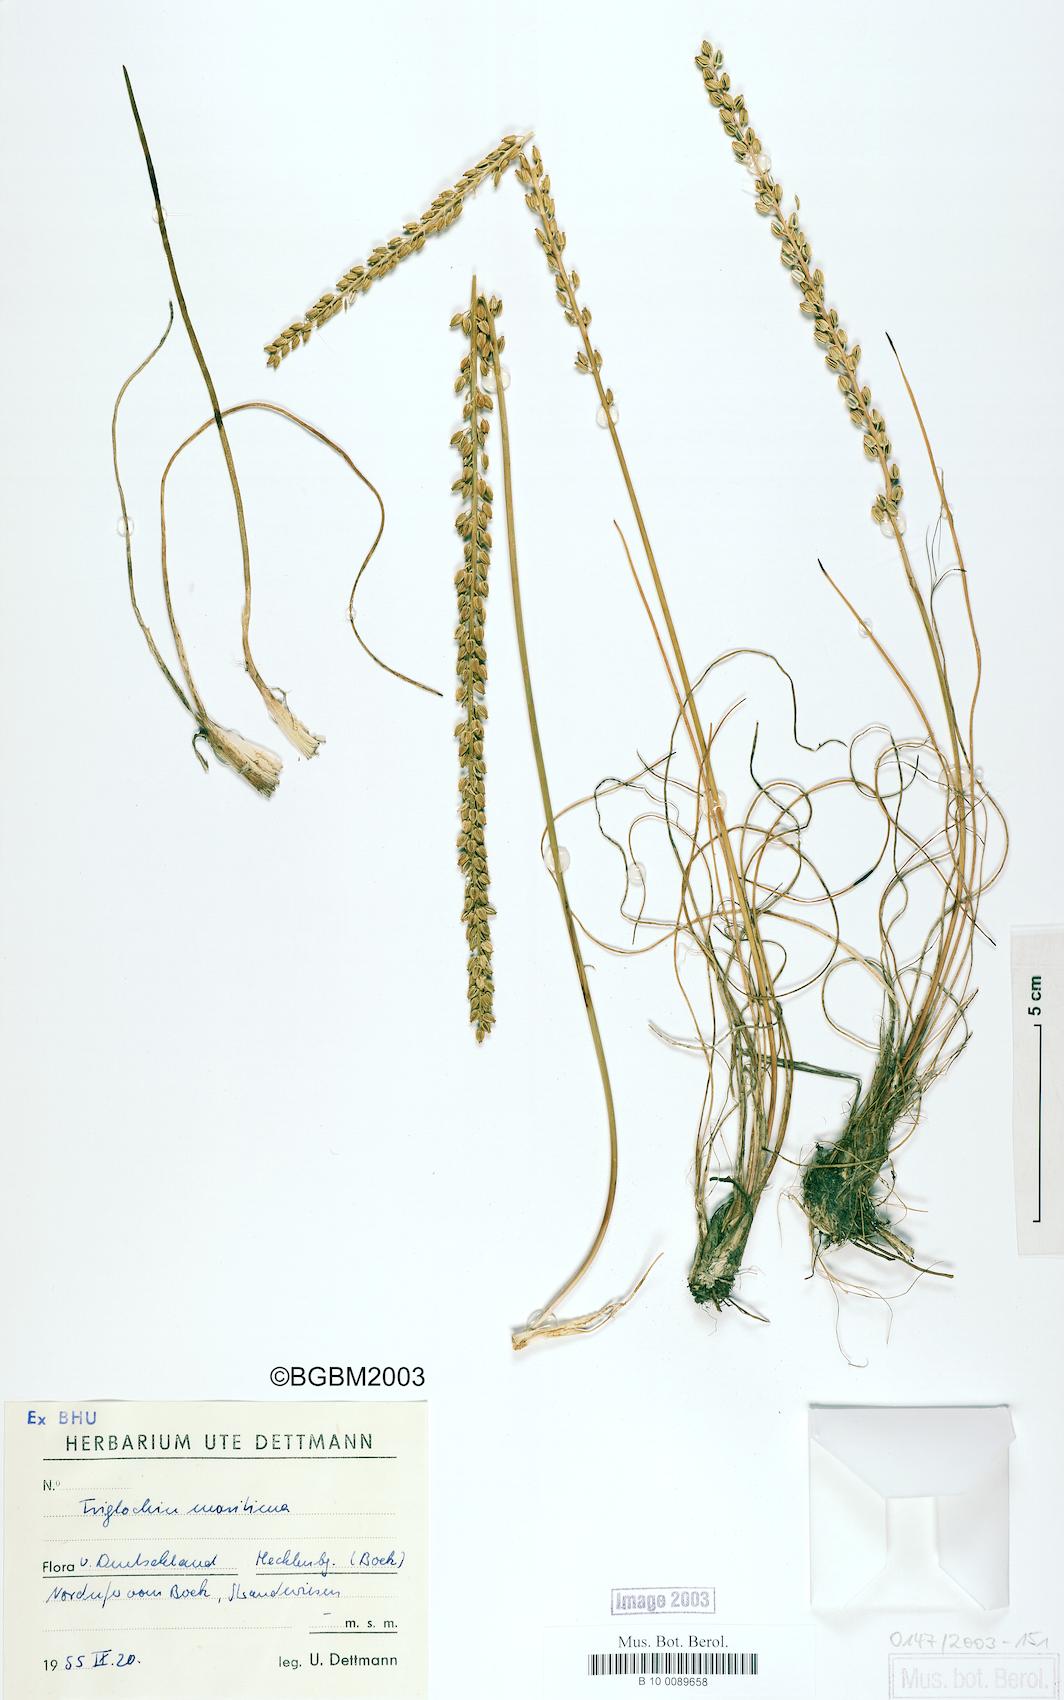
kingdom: Plantae
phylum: Tracheophyta
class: Liliopsida
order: Alismatales
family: Juncaginaceae
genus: Triglochin
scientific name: Triglochin maritima
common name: Sea arrowgrass
